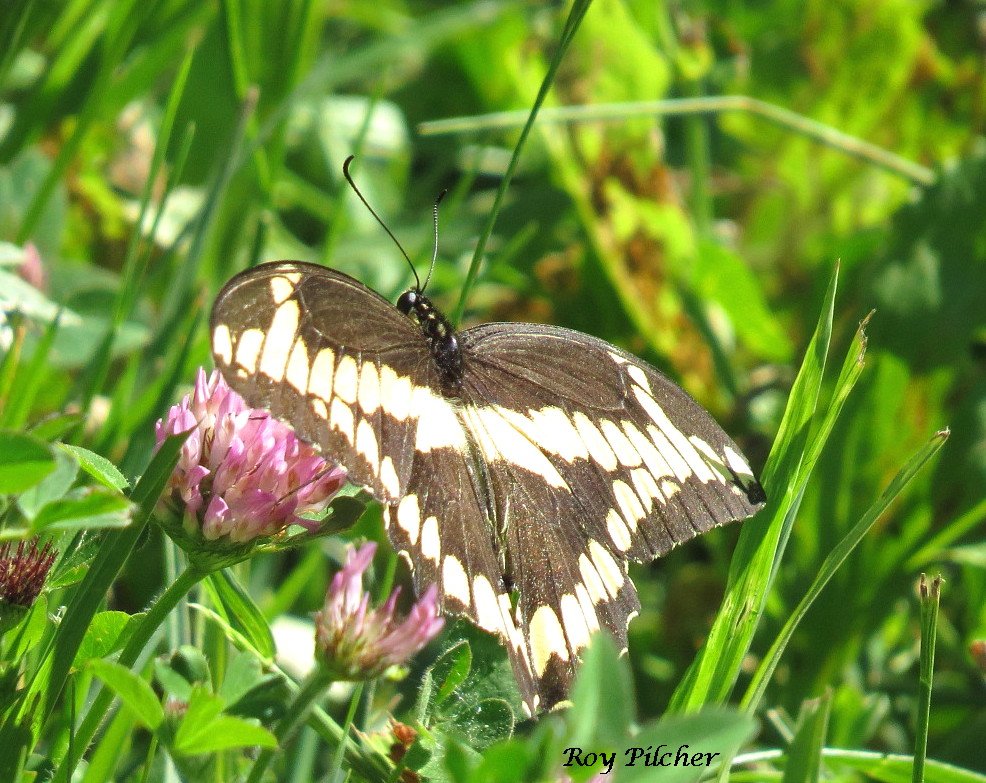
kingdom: Animalia
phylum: Arthropoda
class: Insecta
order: Lepidoptera
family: Papilionidae
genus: Papilio
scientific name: Papilio cresphontes
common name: Eastern Giant Swallowtail
